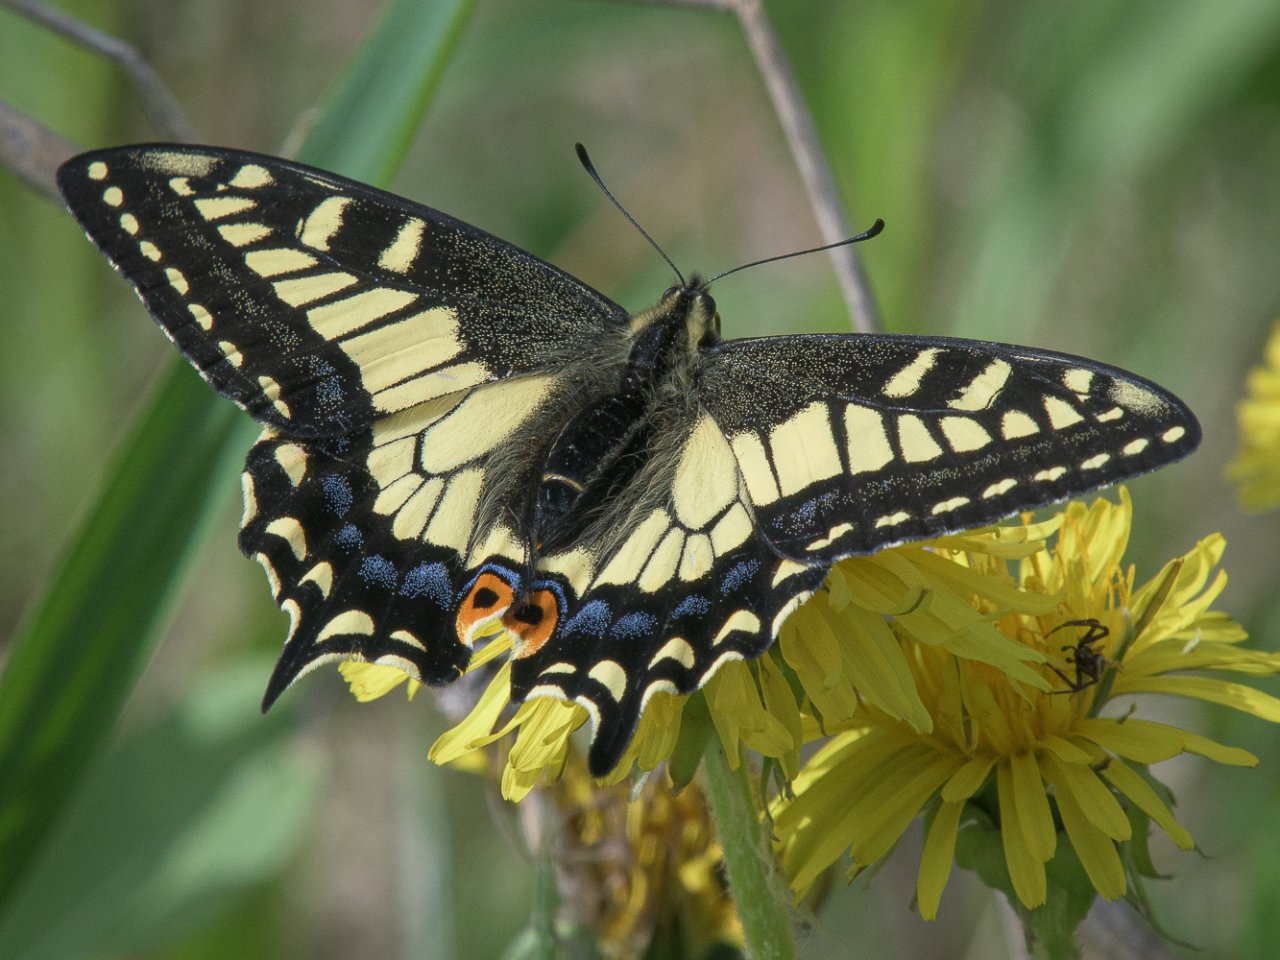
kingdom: Animalia
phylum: Arthropoda
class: Insecta
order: Lepidoptera
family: Papilionidae
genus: Papilio
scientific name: Papilio zelicaon
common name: Anise Swallowtail
